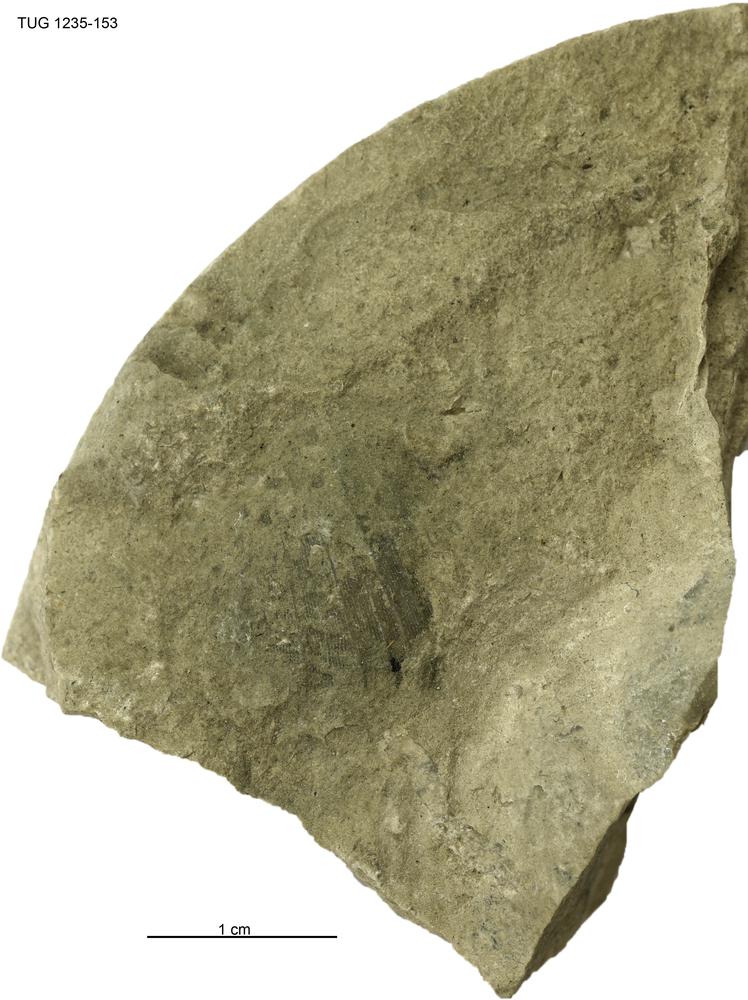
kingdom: Animalia
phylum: Brachiopoda
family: Oldhaminidae
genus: Eoplectodonta
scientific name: Eoplectodonta
